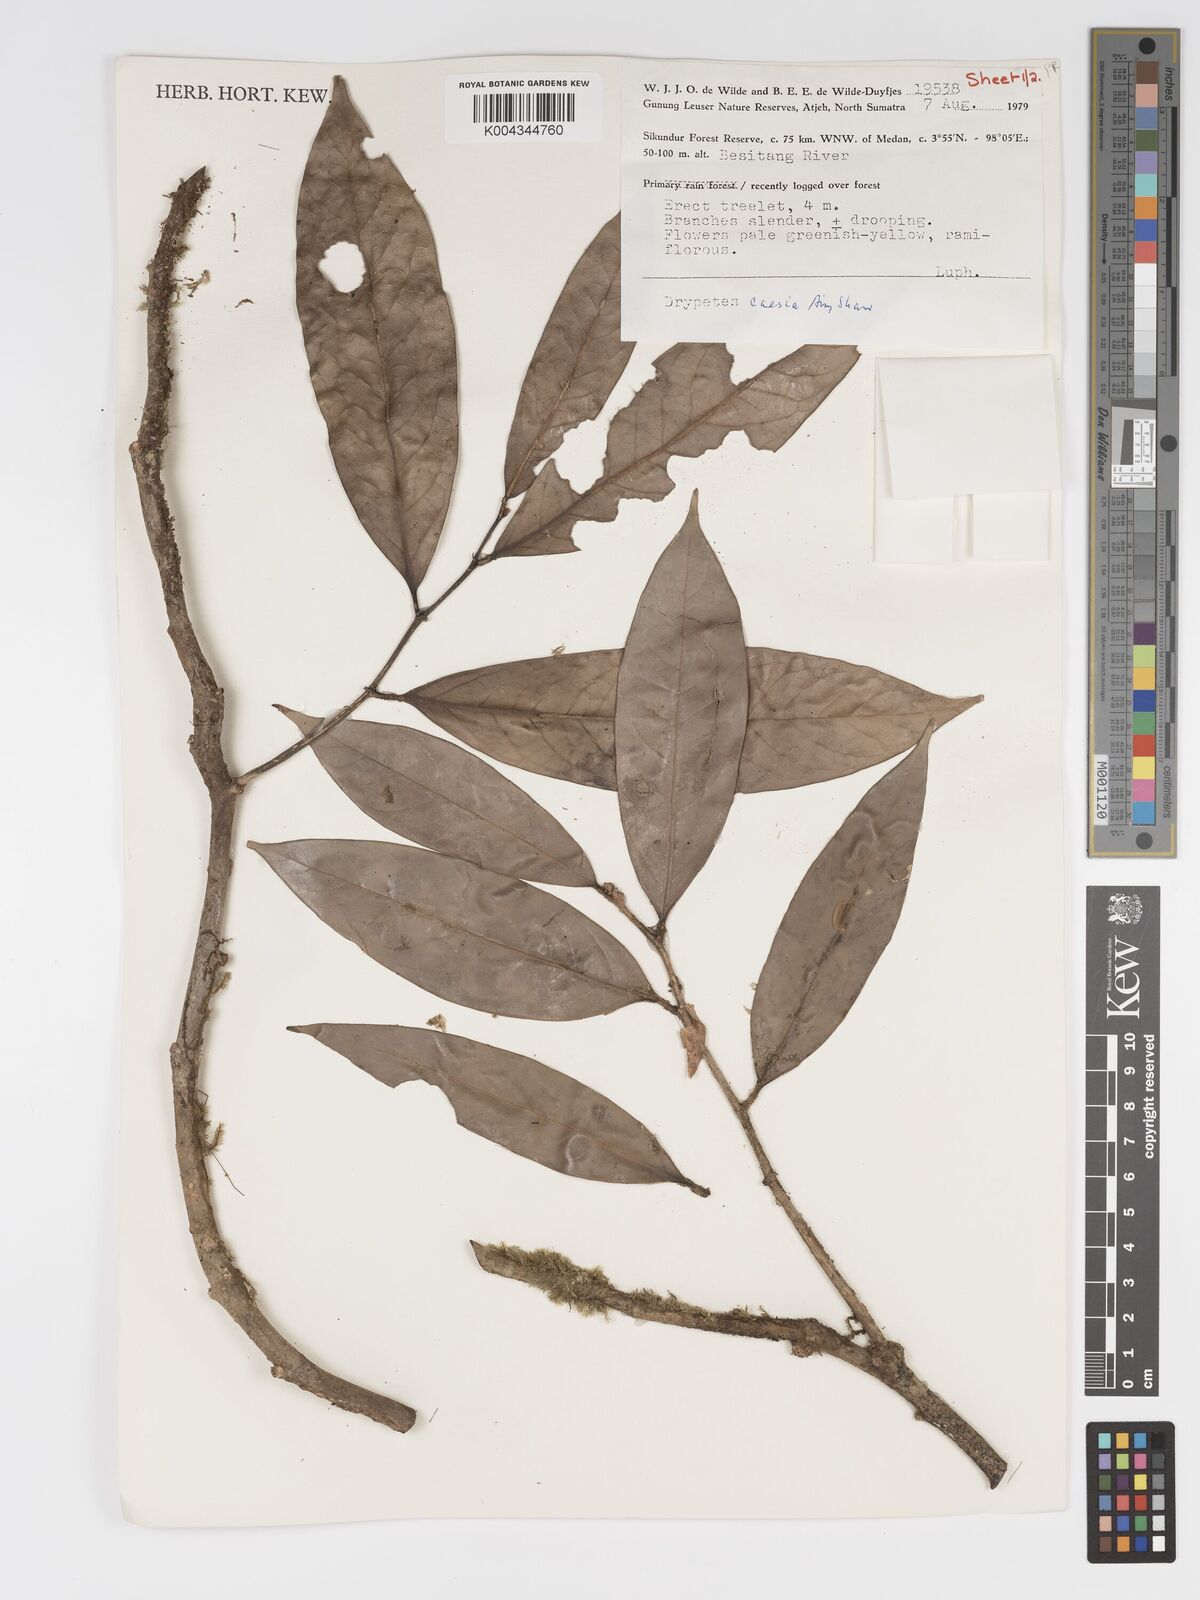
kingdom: Plantae
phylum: Tracheophyta
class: Magnoliopsida
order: Malpighiales
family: Putranjivaceae
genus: Drypetes
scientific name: Drypetes caesia
